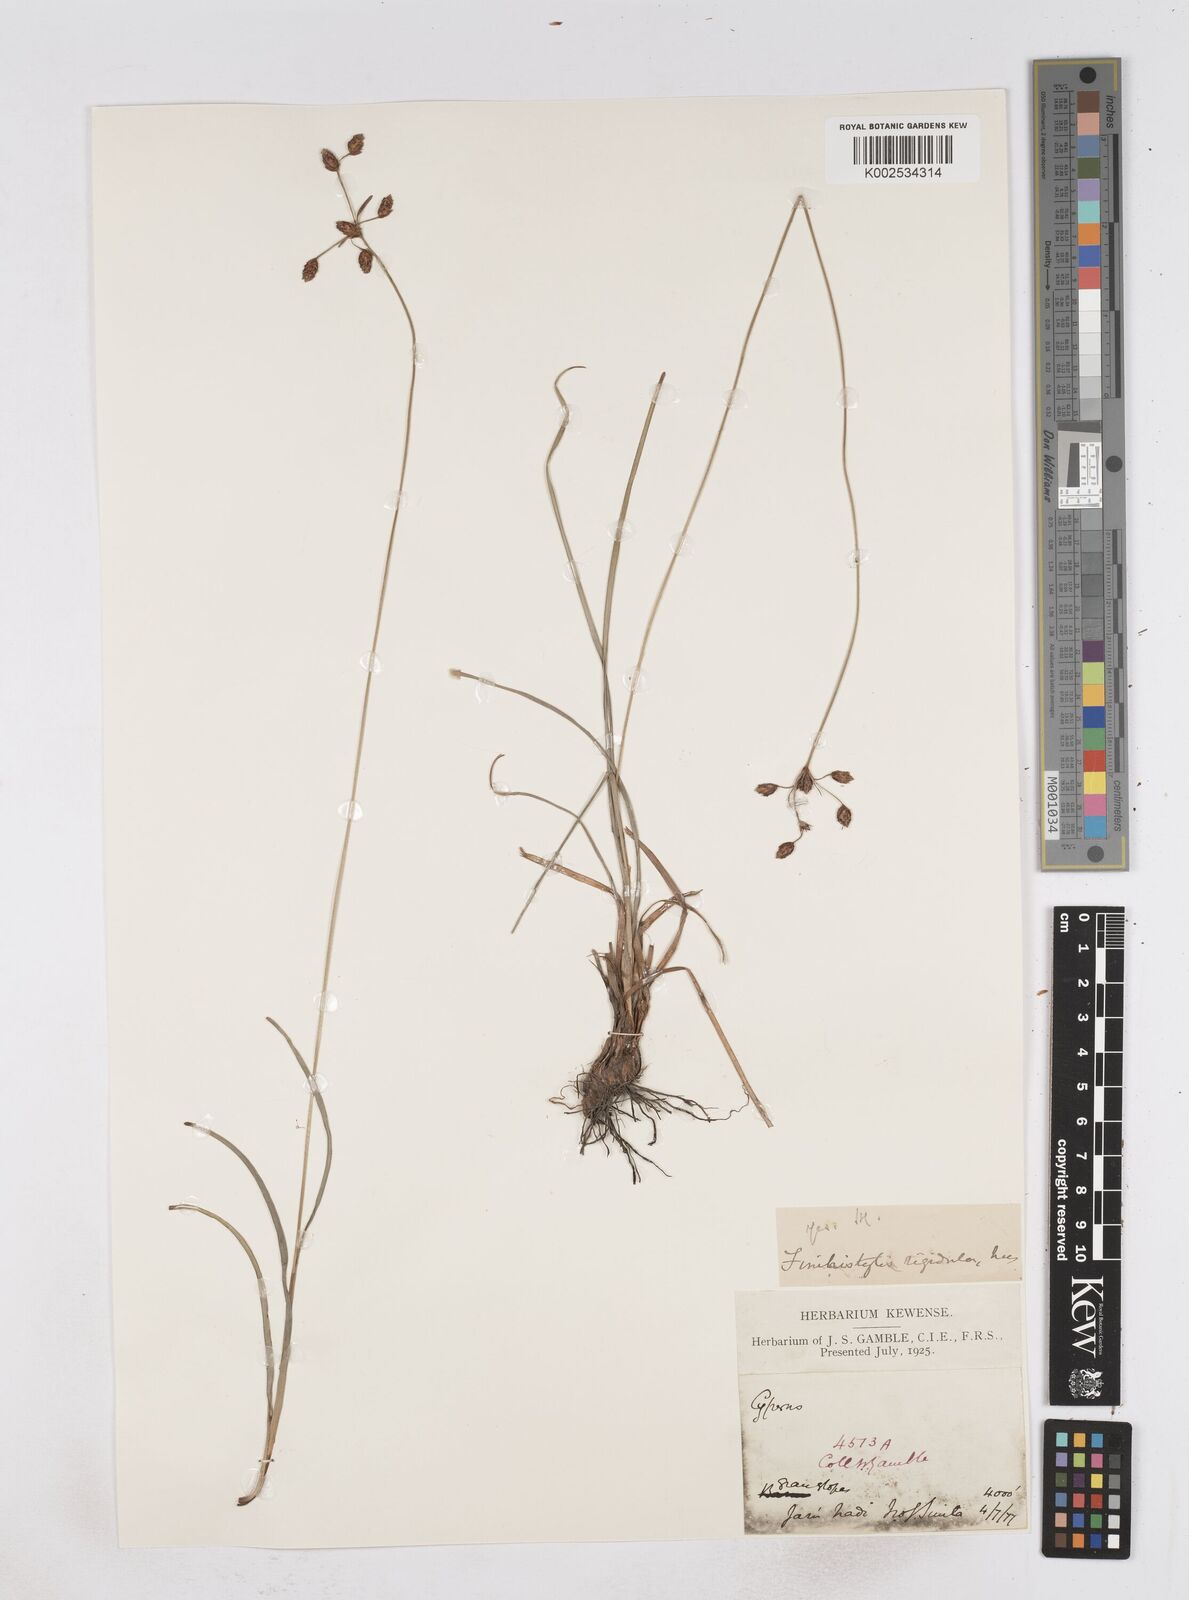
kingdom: Plantae
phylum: Tracheophyta
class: Liliopsida
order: Poales
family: Cyperaceae
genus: Fimbristylis
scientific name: Fimbristylis rigidula
